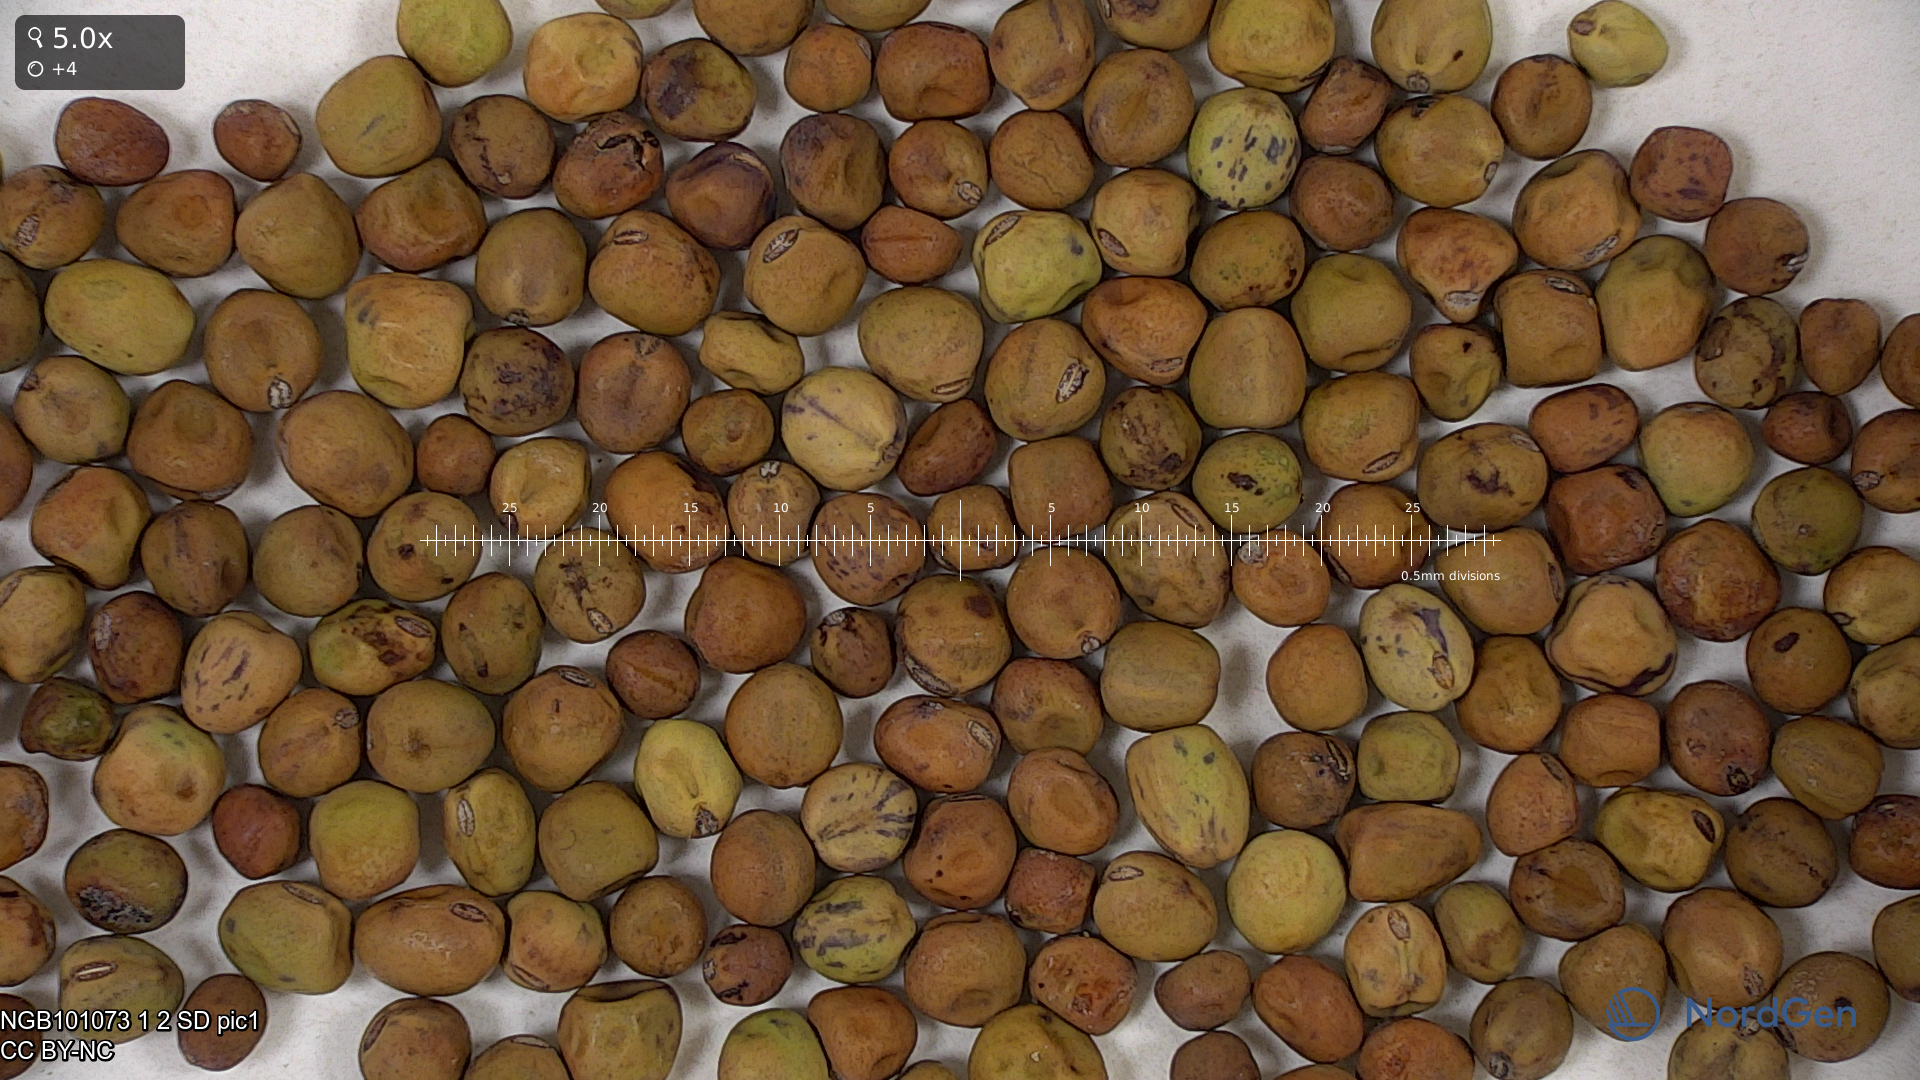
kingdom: Plantae
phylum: Tracheophyta
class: Magnoliopsida
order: Fabales
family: Fabaceae
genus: Lathyrus
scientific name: Lathyrus oleraceus
